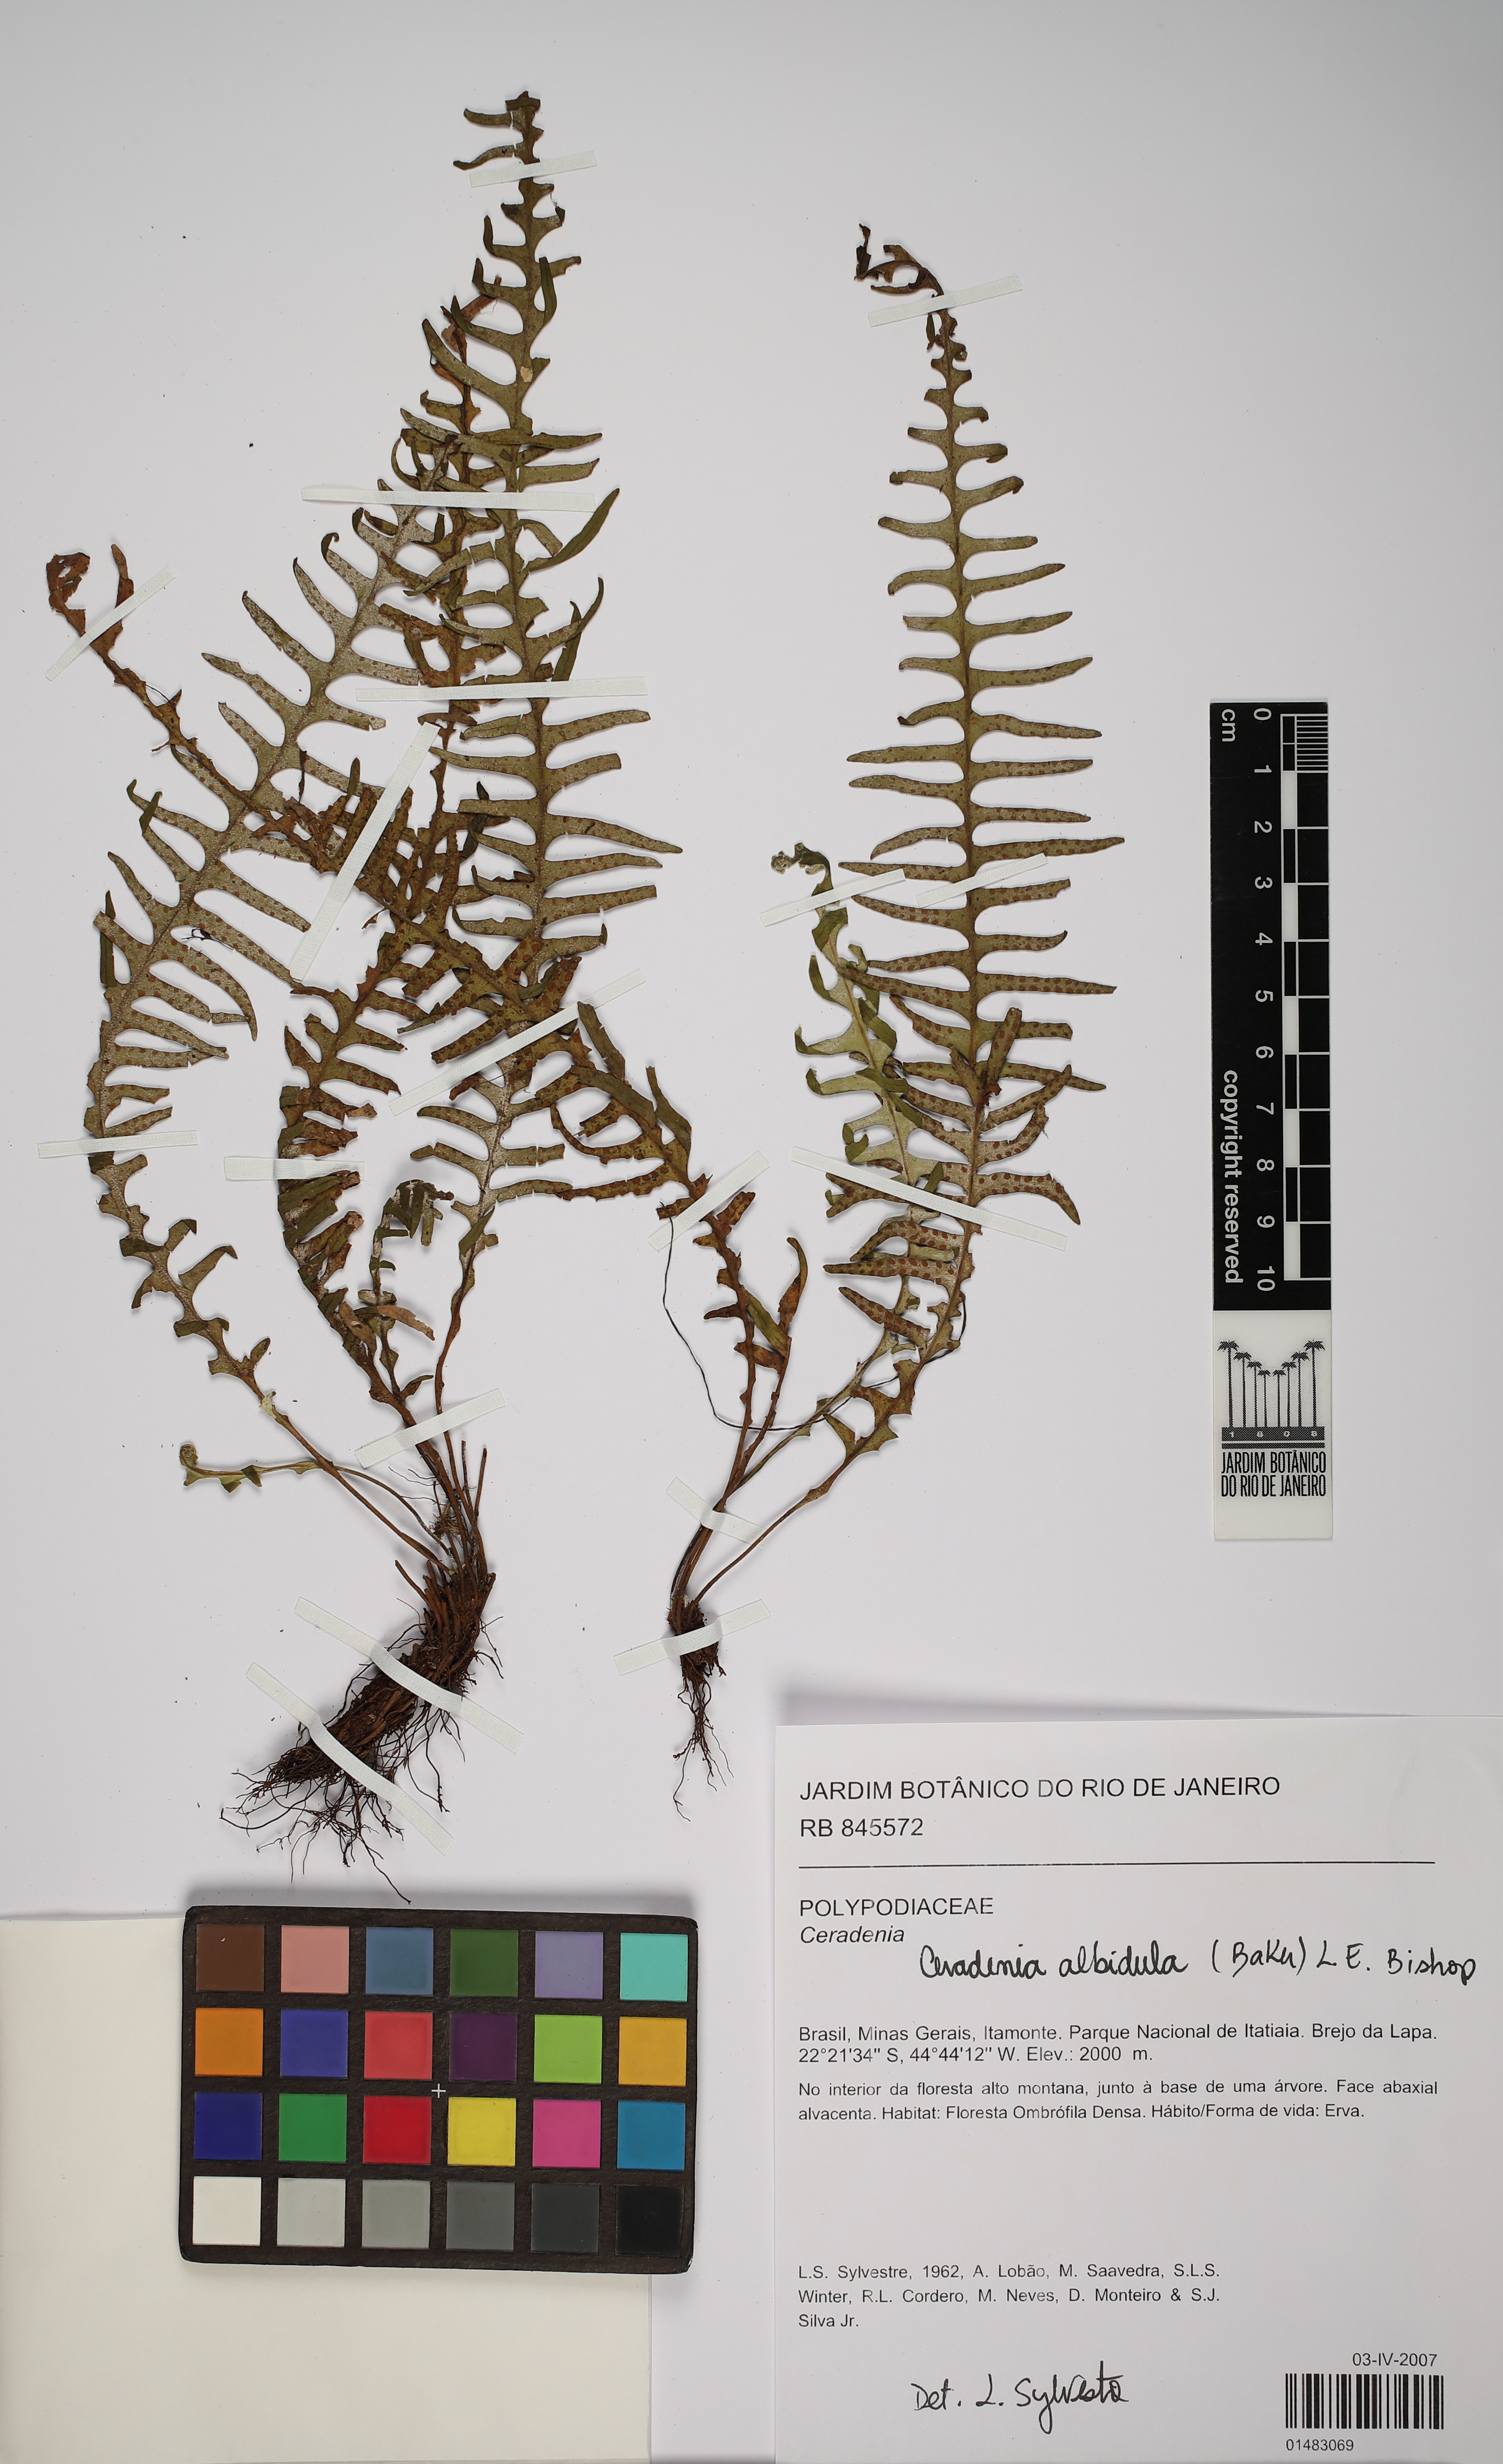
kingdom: Plantae
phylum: Tracheophyta
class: Polypodiopsida
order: Polypodiales
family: Polypodiaceae
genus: Ceradenia
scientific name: Ceradenia albidula
